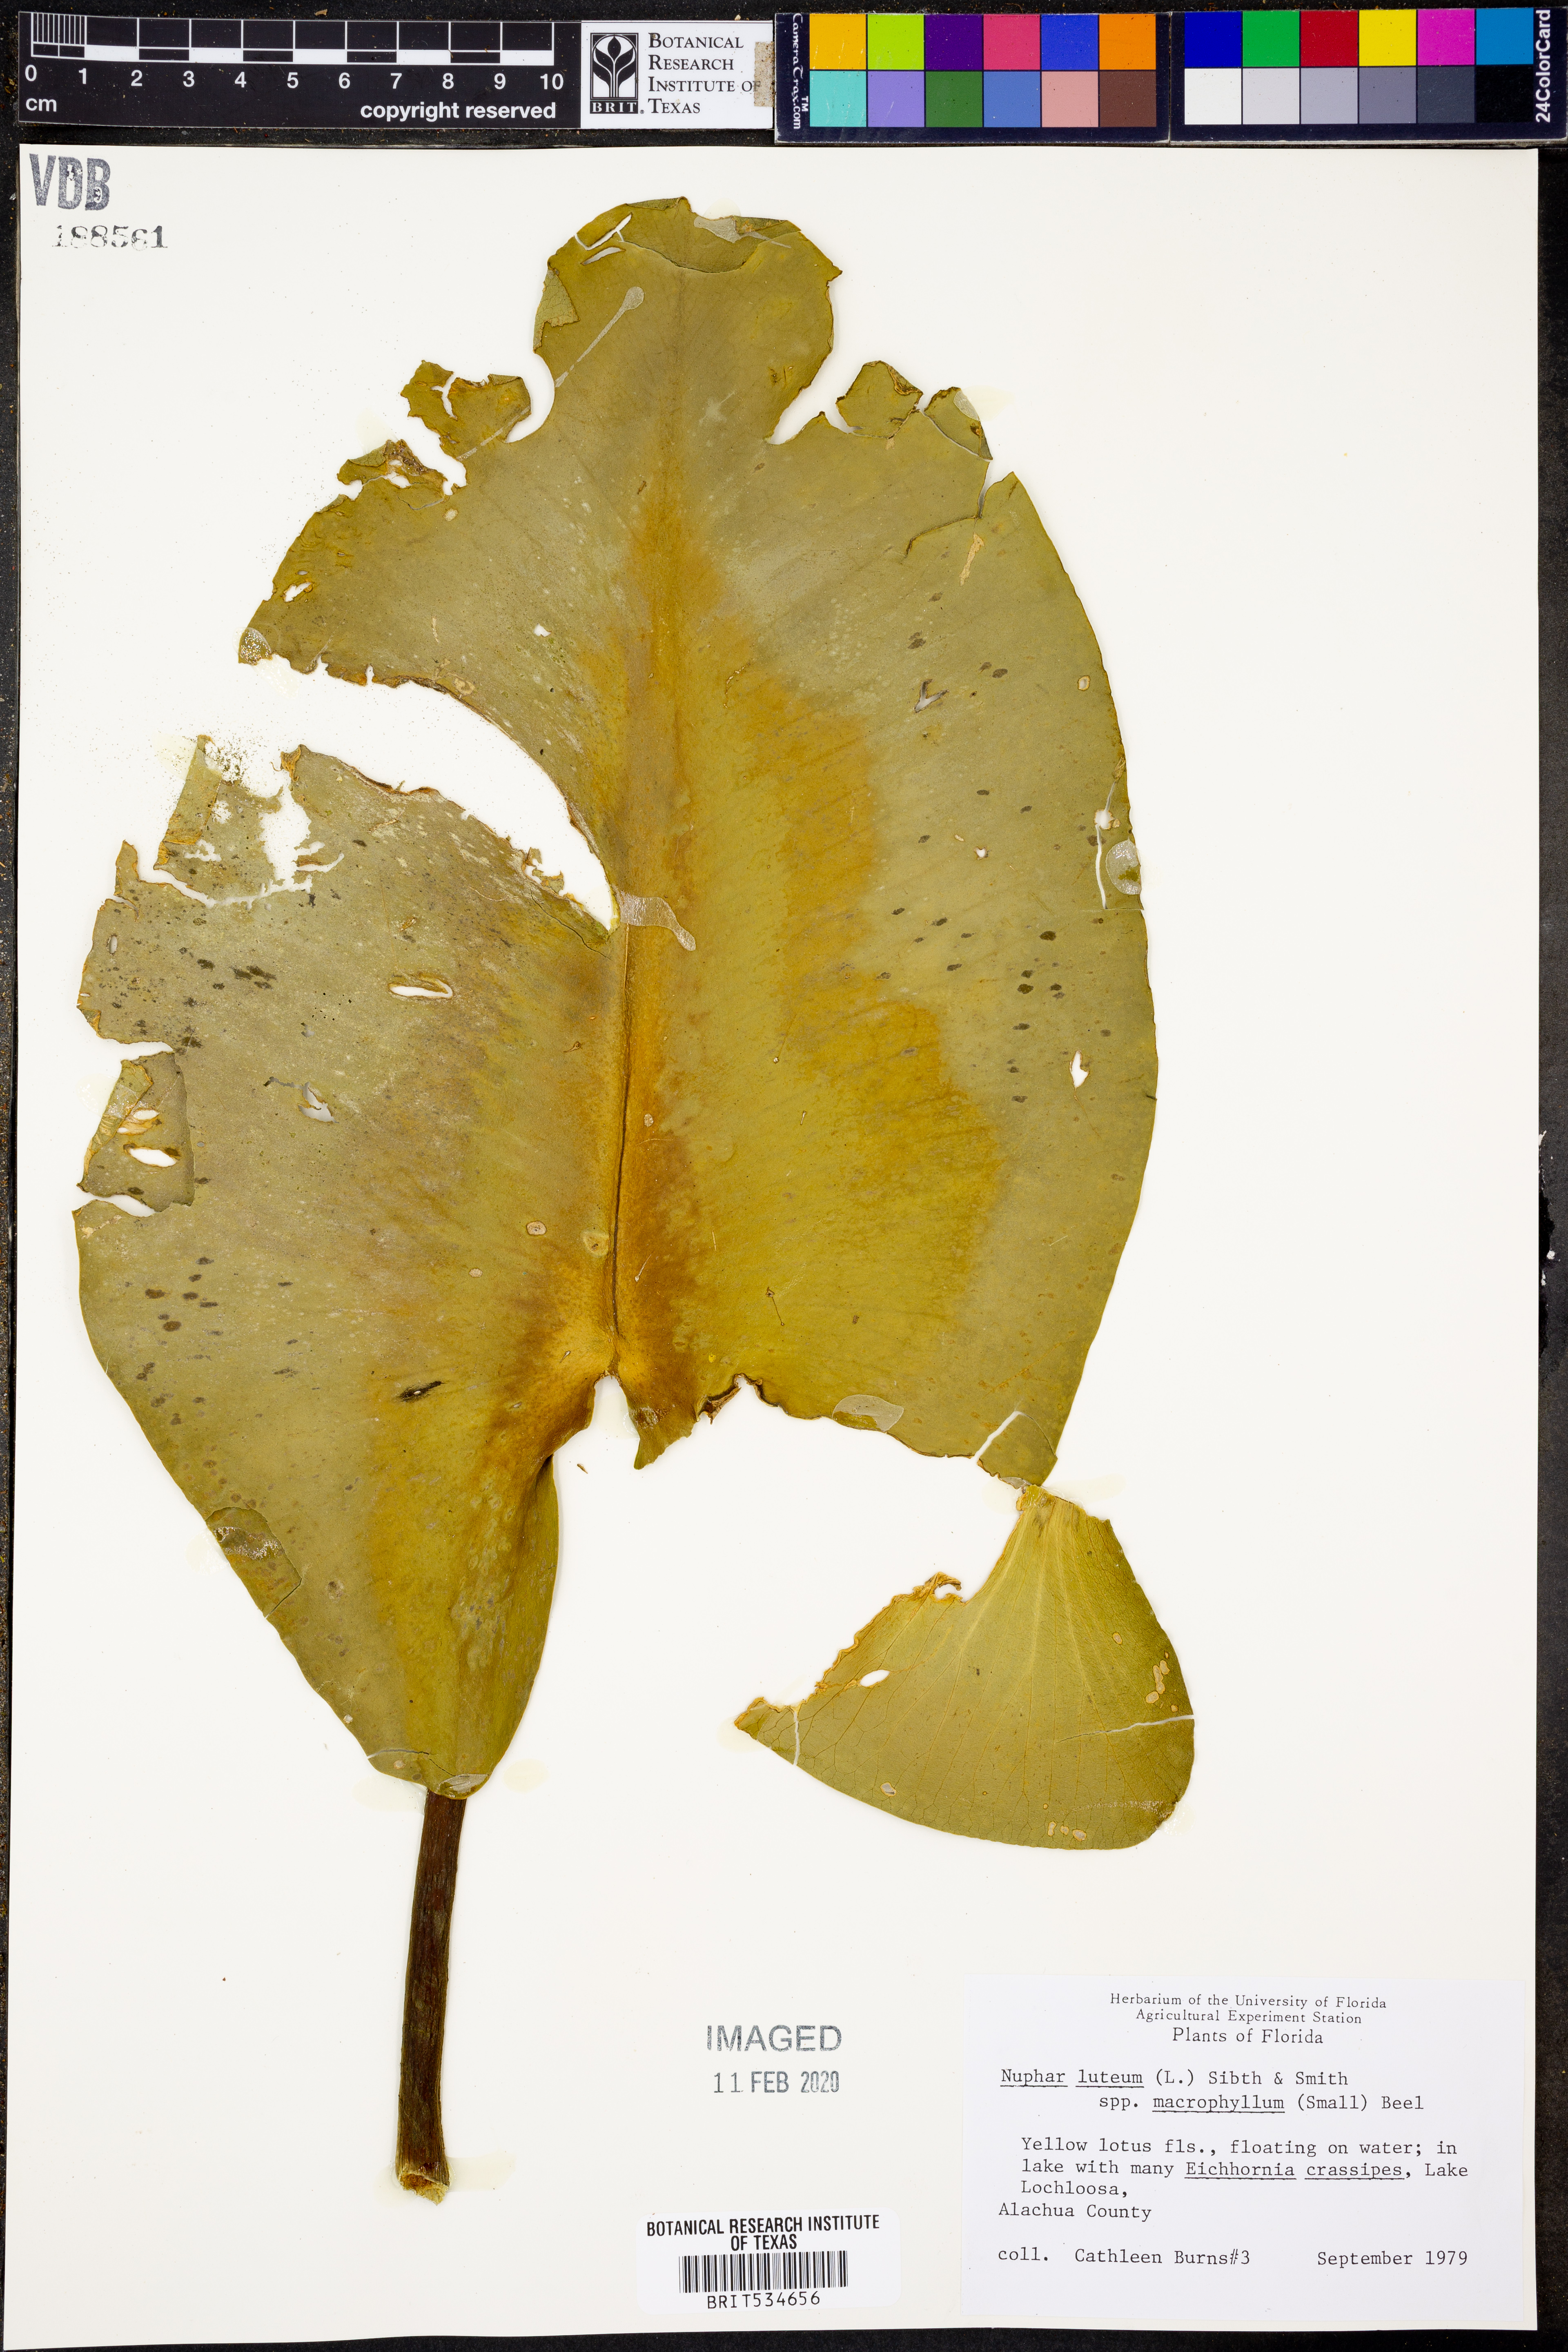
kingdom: Plantae
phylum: Tracheophyta
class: Magnoliopsida
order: Nymphaeales
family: Nymphaeaceae
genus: Nuphar
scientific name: Nuphar advena
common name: Spatter-dock
